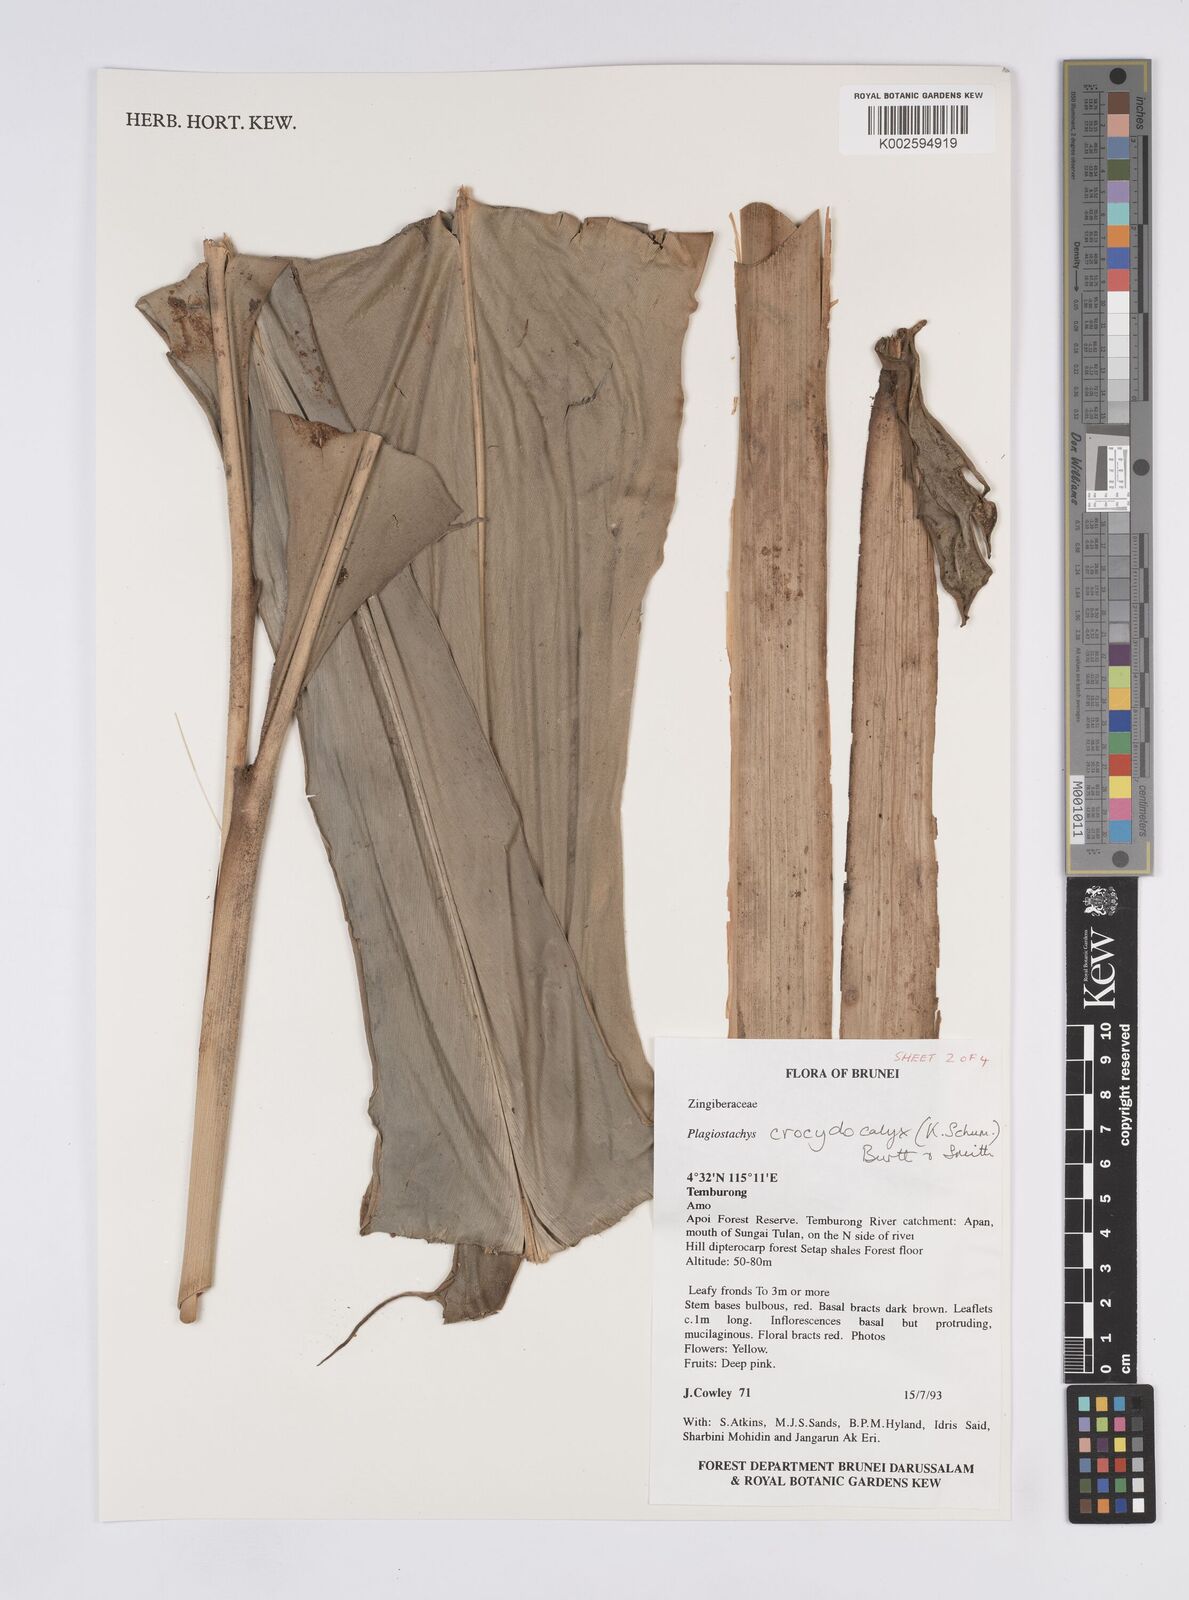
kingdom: Plantae
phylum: Tracheophyta
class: Liliopsida
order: Zingiberales
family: Zingiberaceae
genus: Plagiostachys
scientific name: Plagiostachys crocydocalyx
